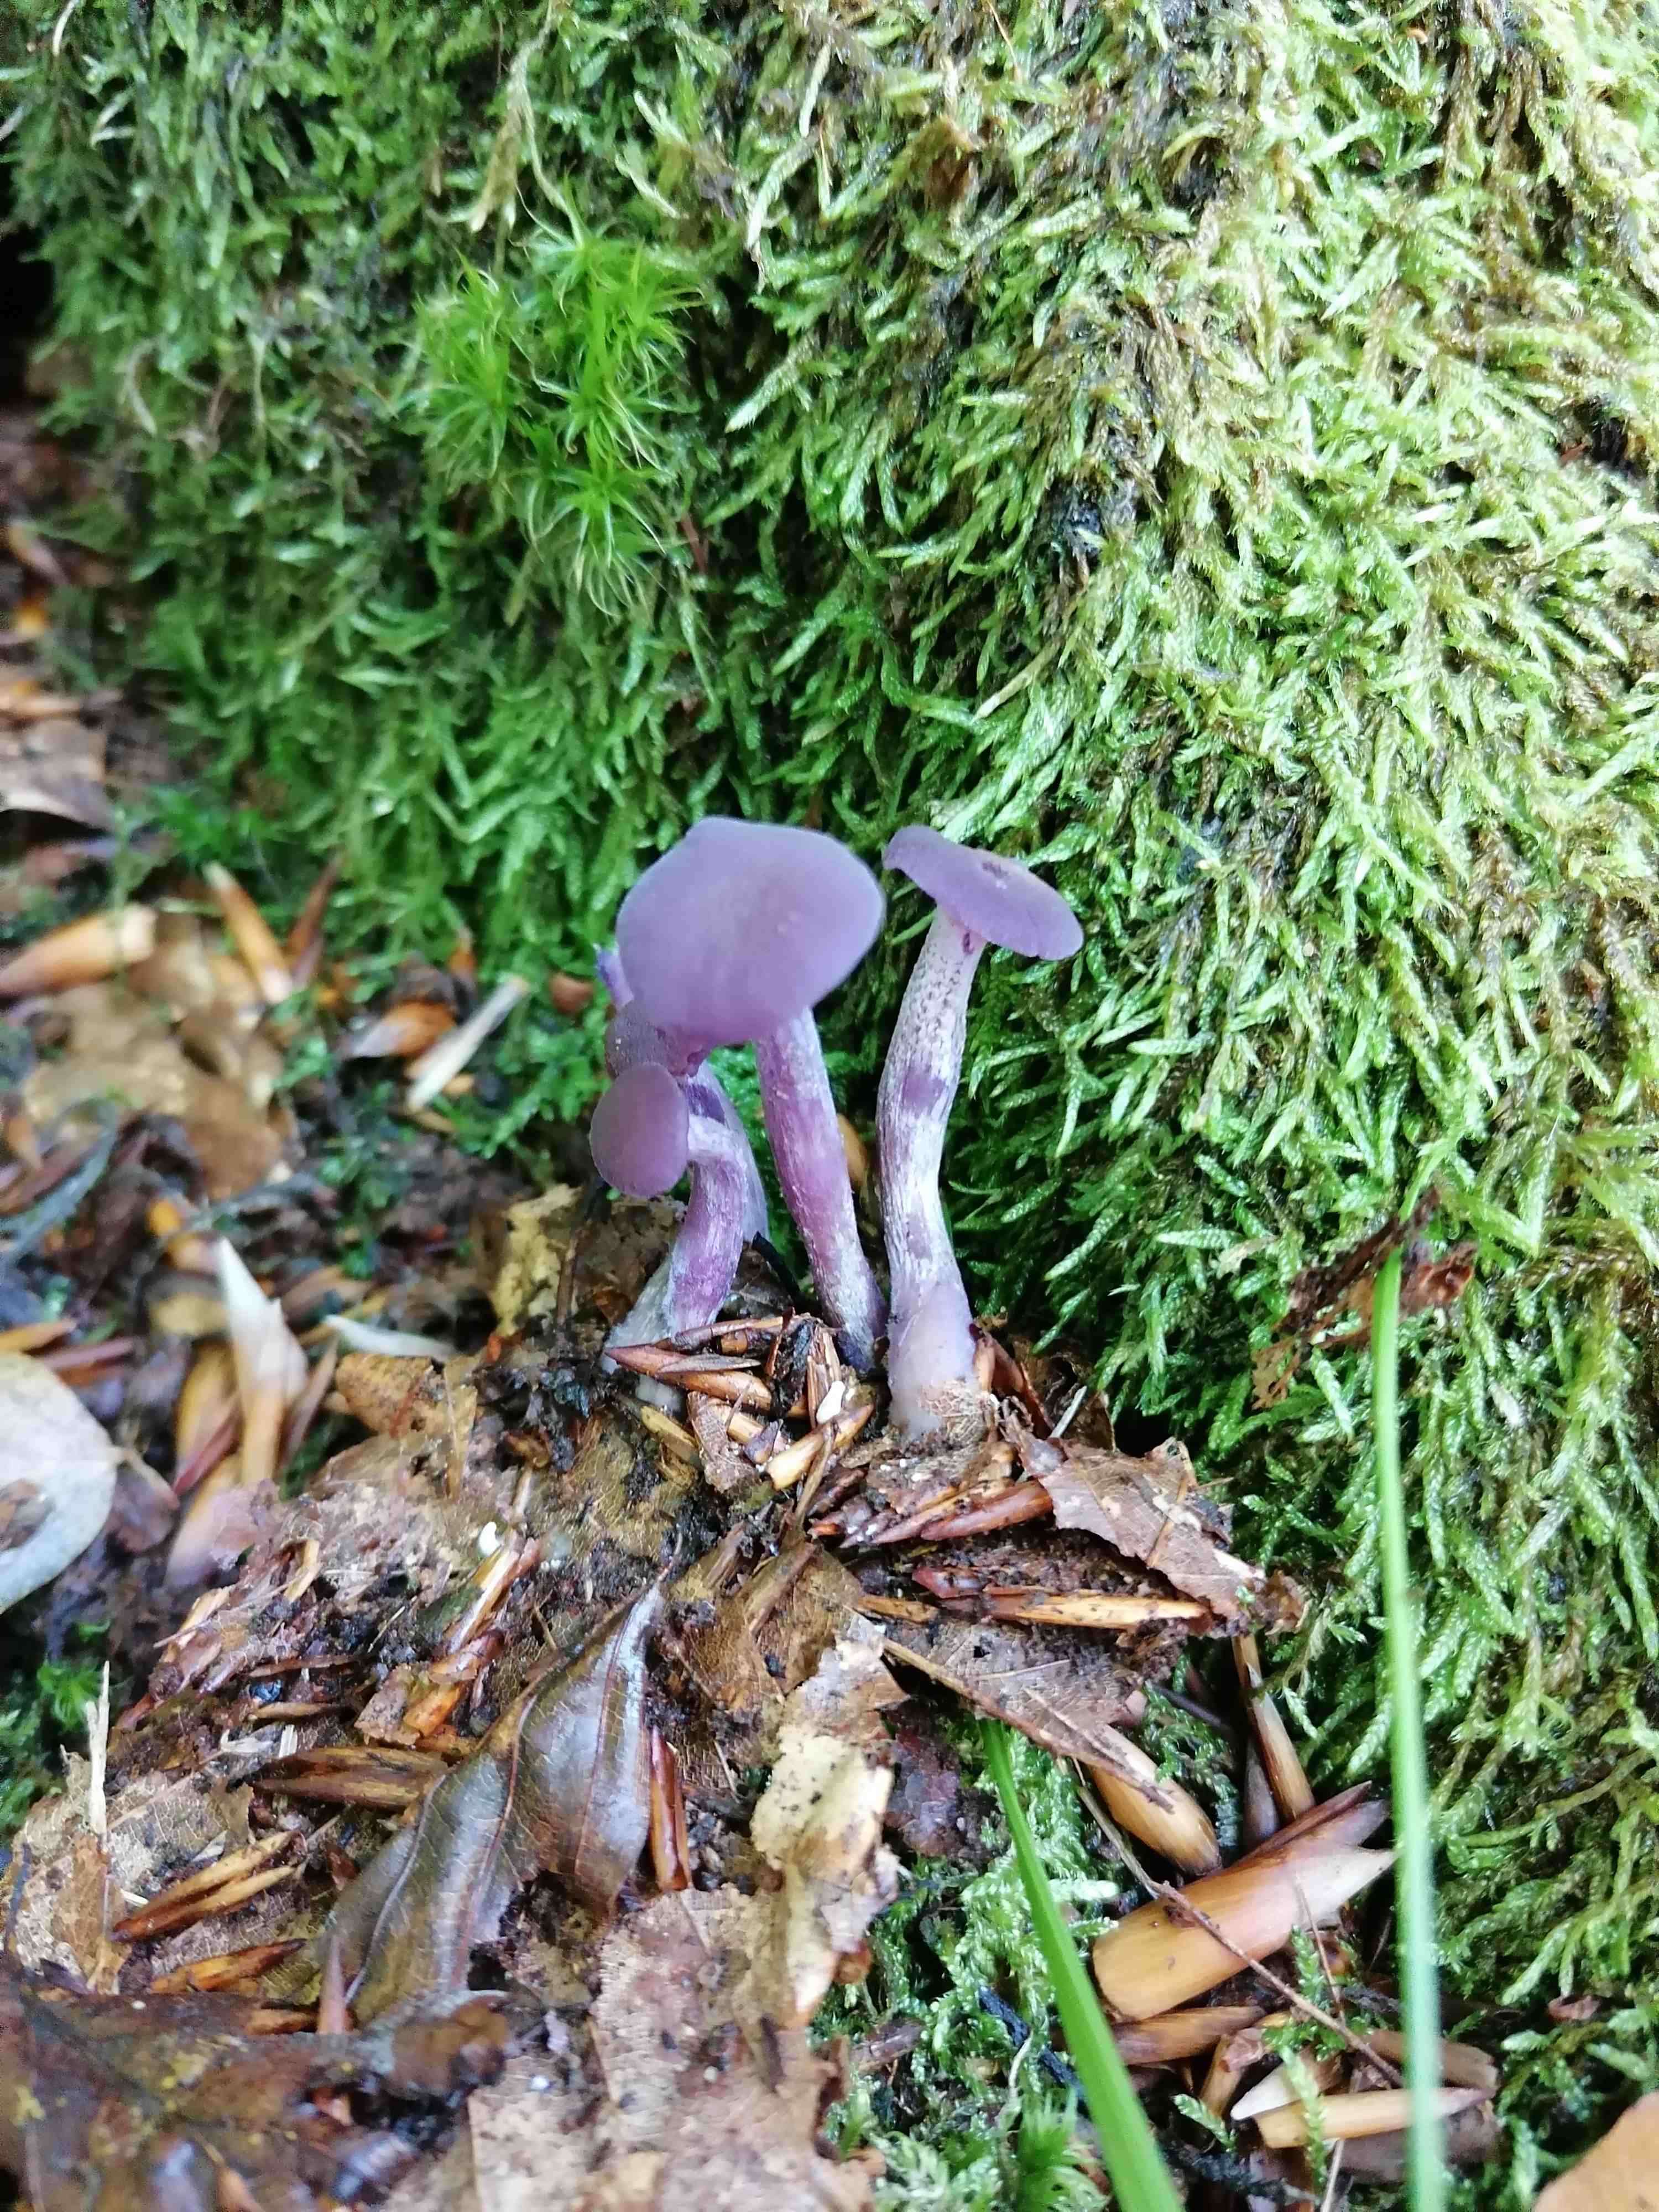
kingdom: Fungi
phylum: Basidiomycota
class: Agaricomycetes
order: Agaricales
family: Hydnangiaceae
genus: Laccaria
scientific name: Laccaria amethystina
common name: violet ametysthat
